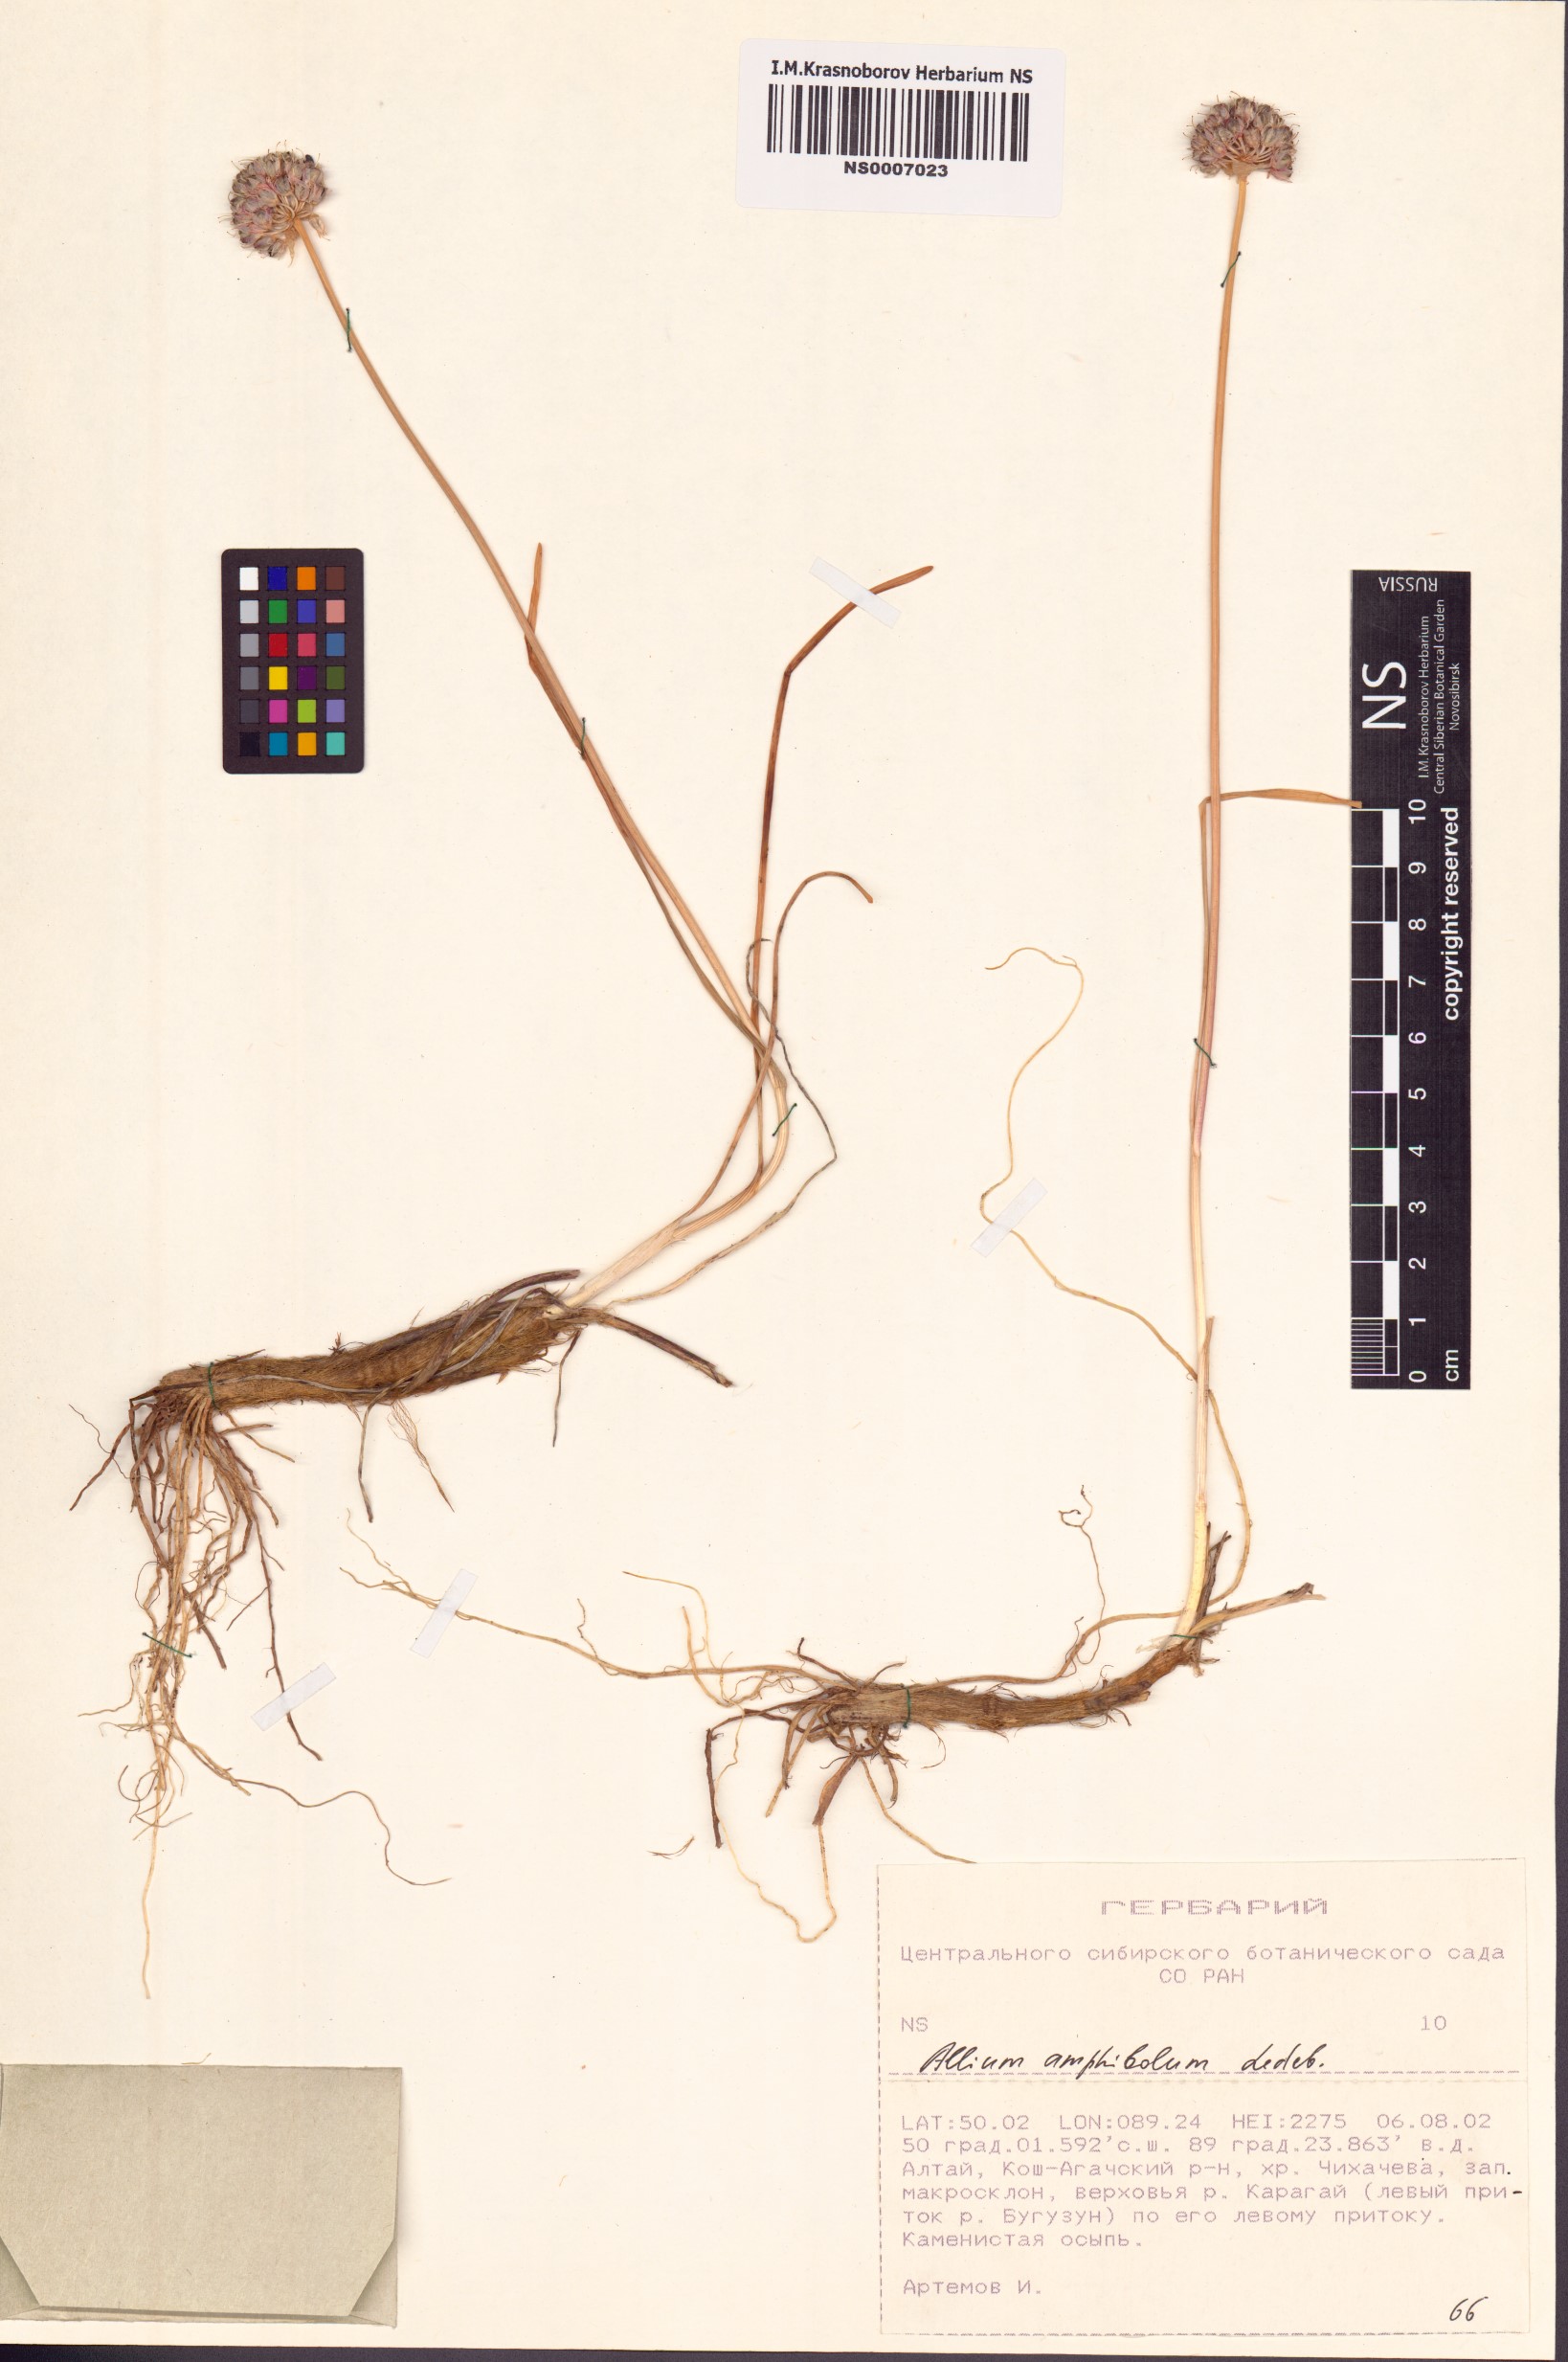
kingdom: Plantae
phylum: Tracheophyta
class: Liliopsida
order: Asparagales
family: Amaryllidaceae
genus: Allium
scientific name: Allium amphibolum
